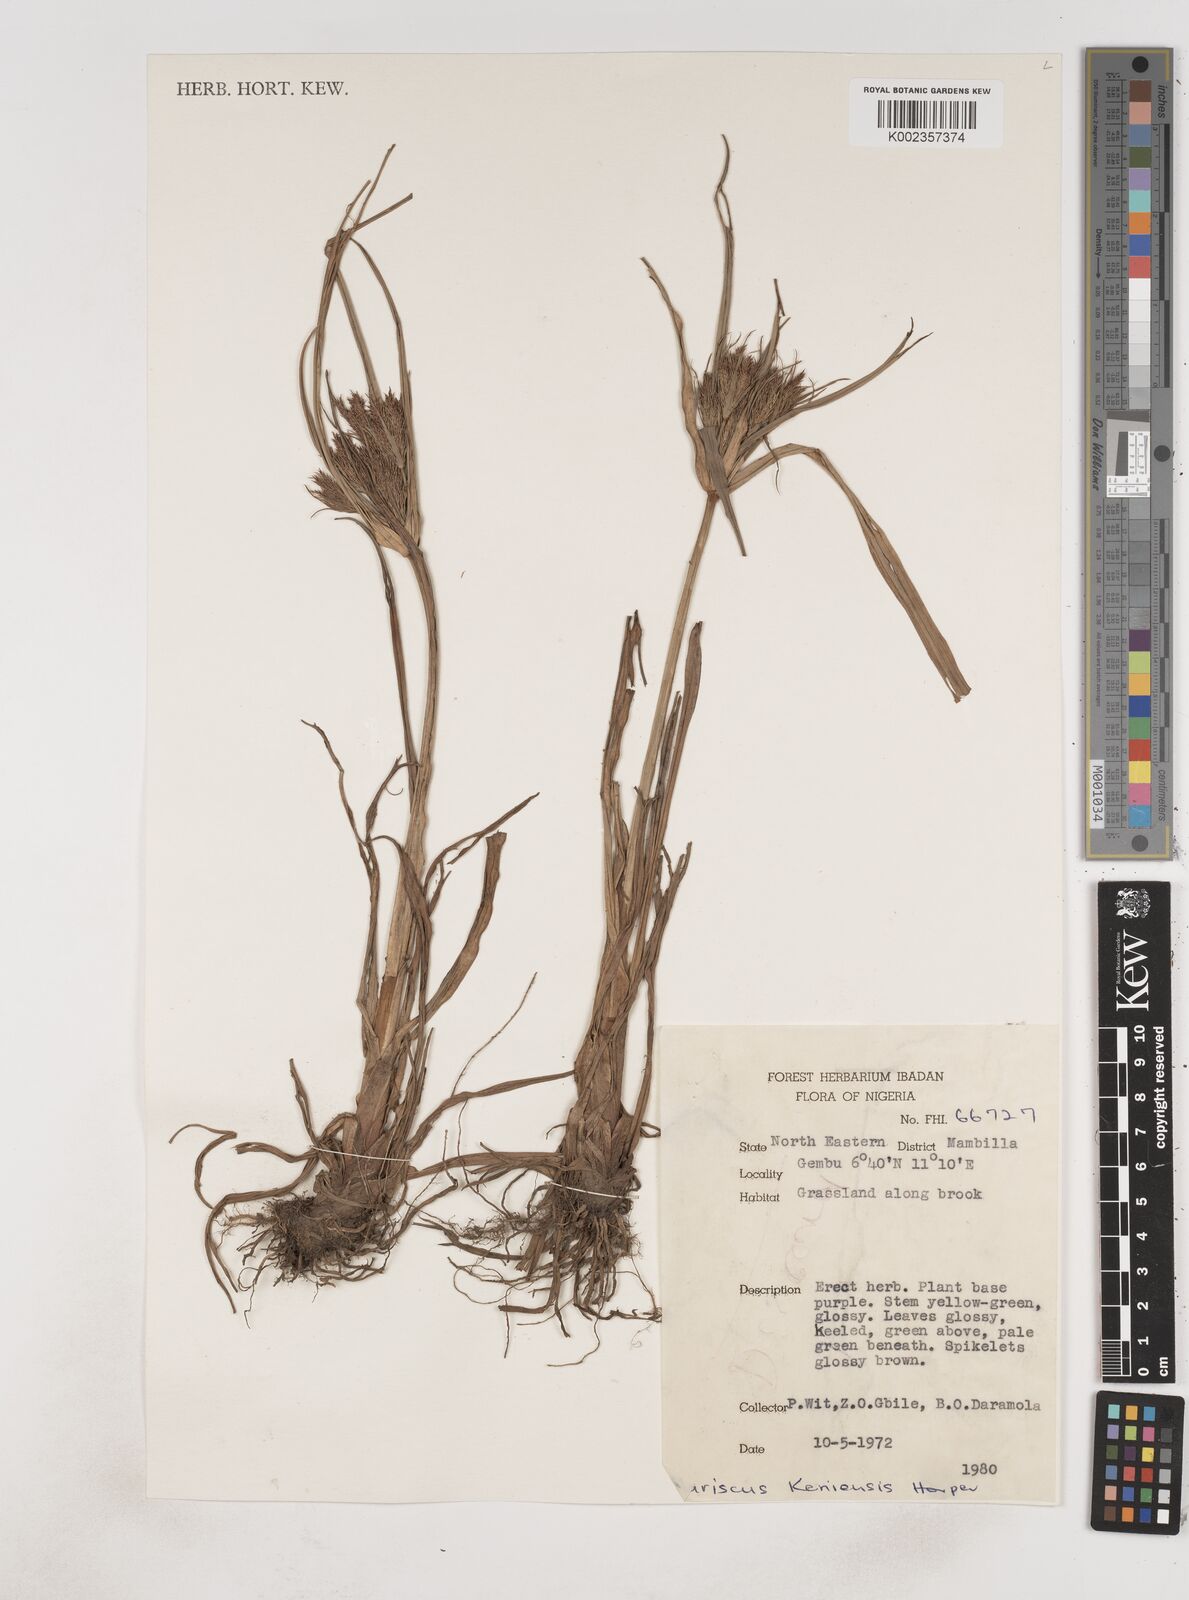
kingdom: Plantae
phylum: Tracheophyta
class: Liliopsida
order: Poales
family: Cyperaceae
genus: Cyperus
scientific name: Cyperus distans
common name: Slender cyperus
